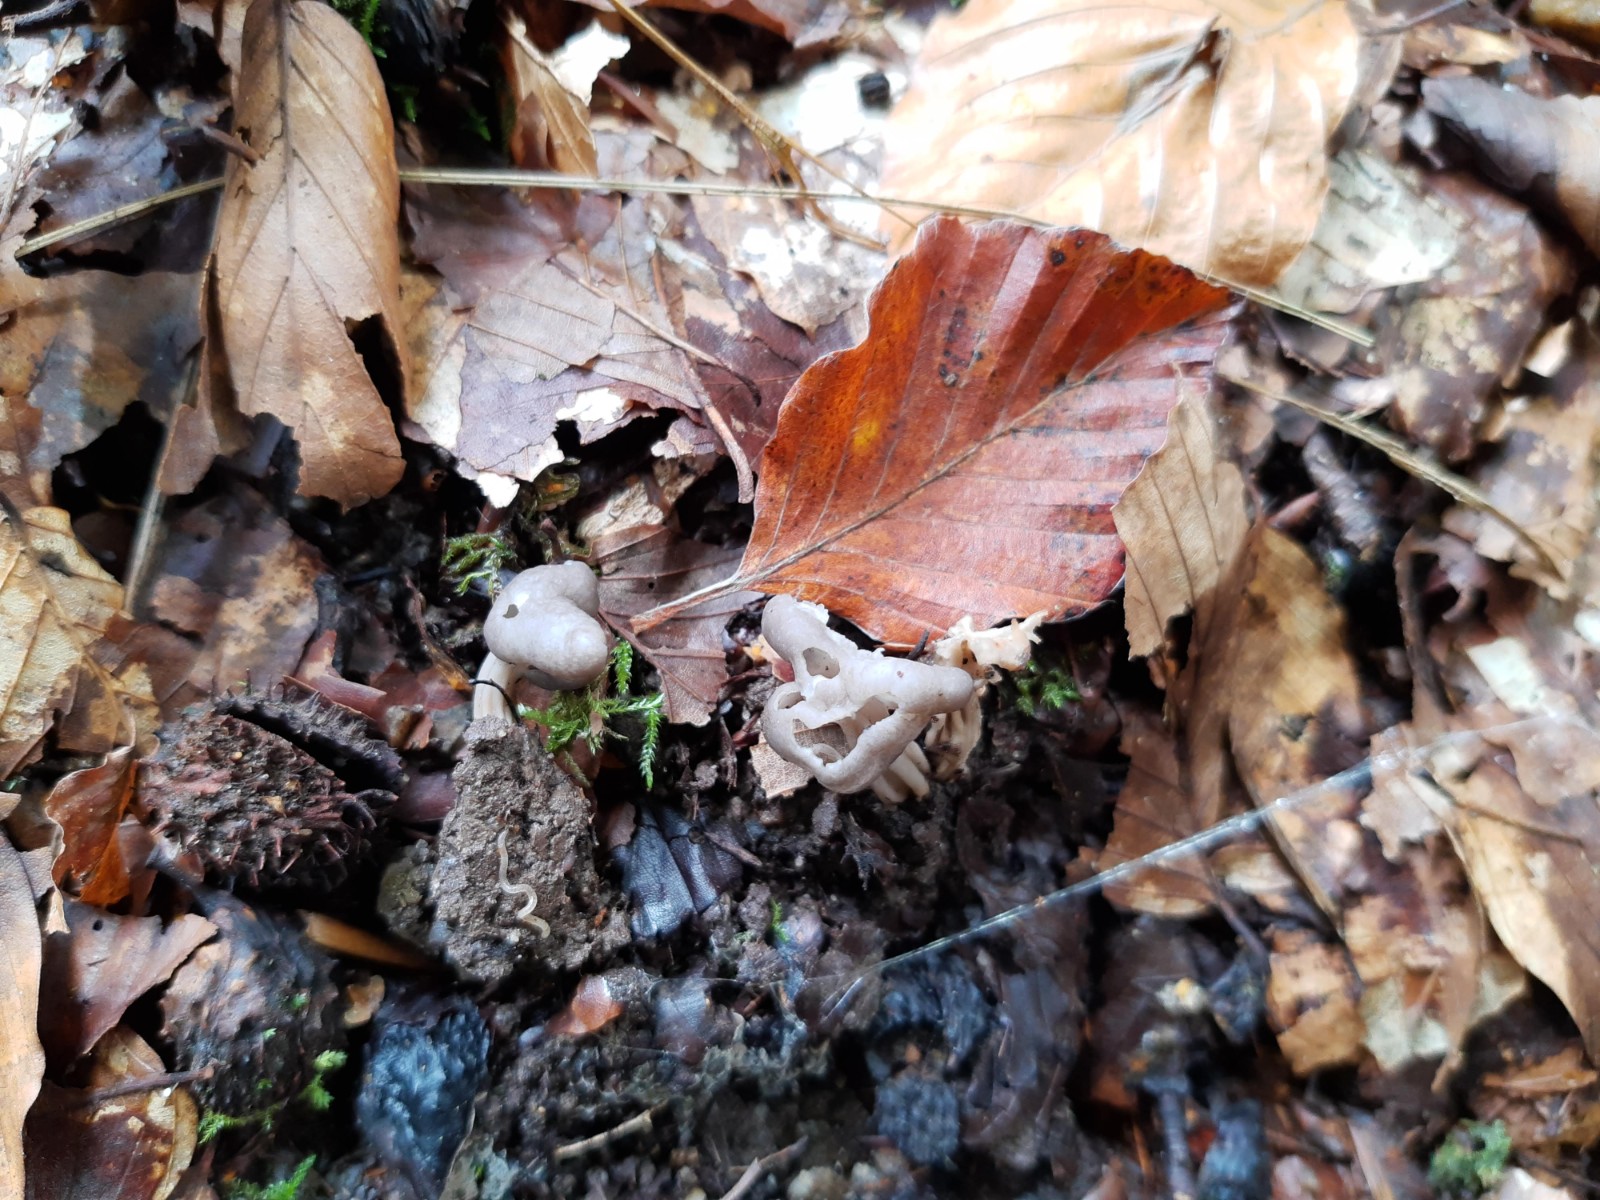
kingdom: Fungi
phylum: Ascomycota
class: Pezizomycetes
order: Pezizales
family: Helvellaceae
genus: Helvella
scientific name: Helvella lacunosa
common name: grubet foldhat
